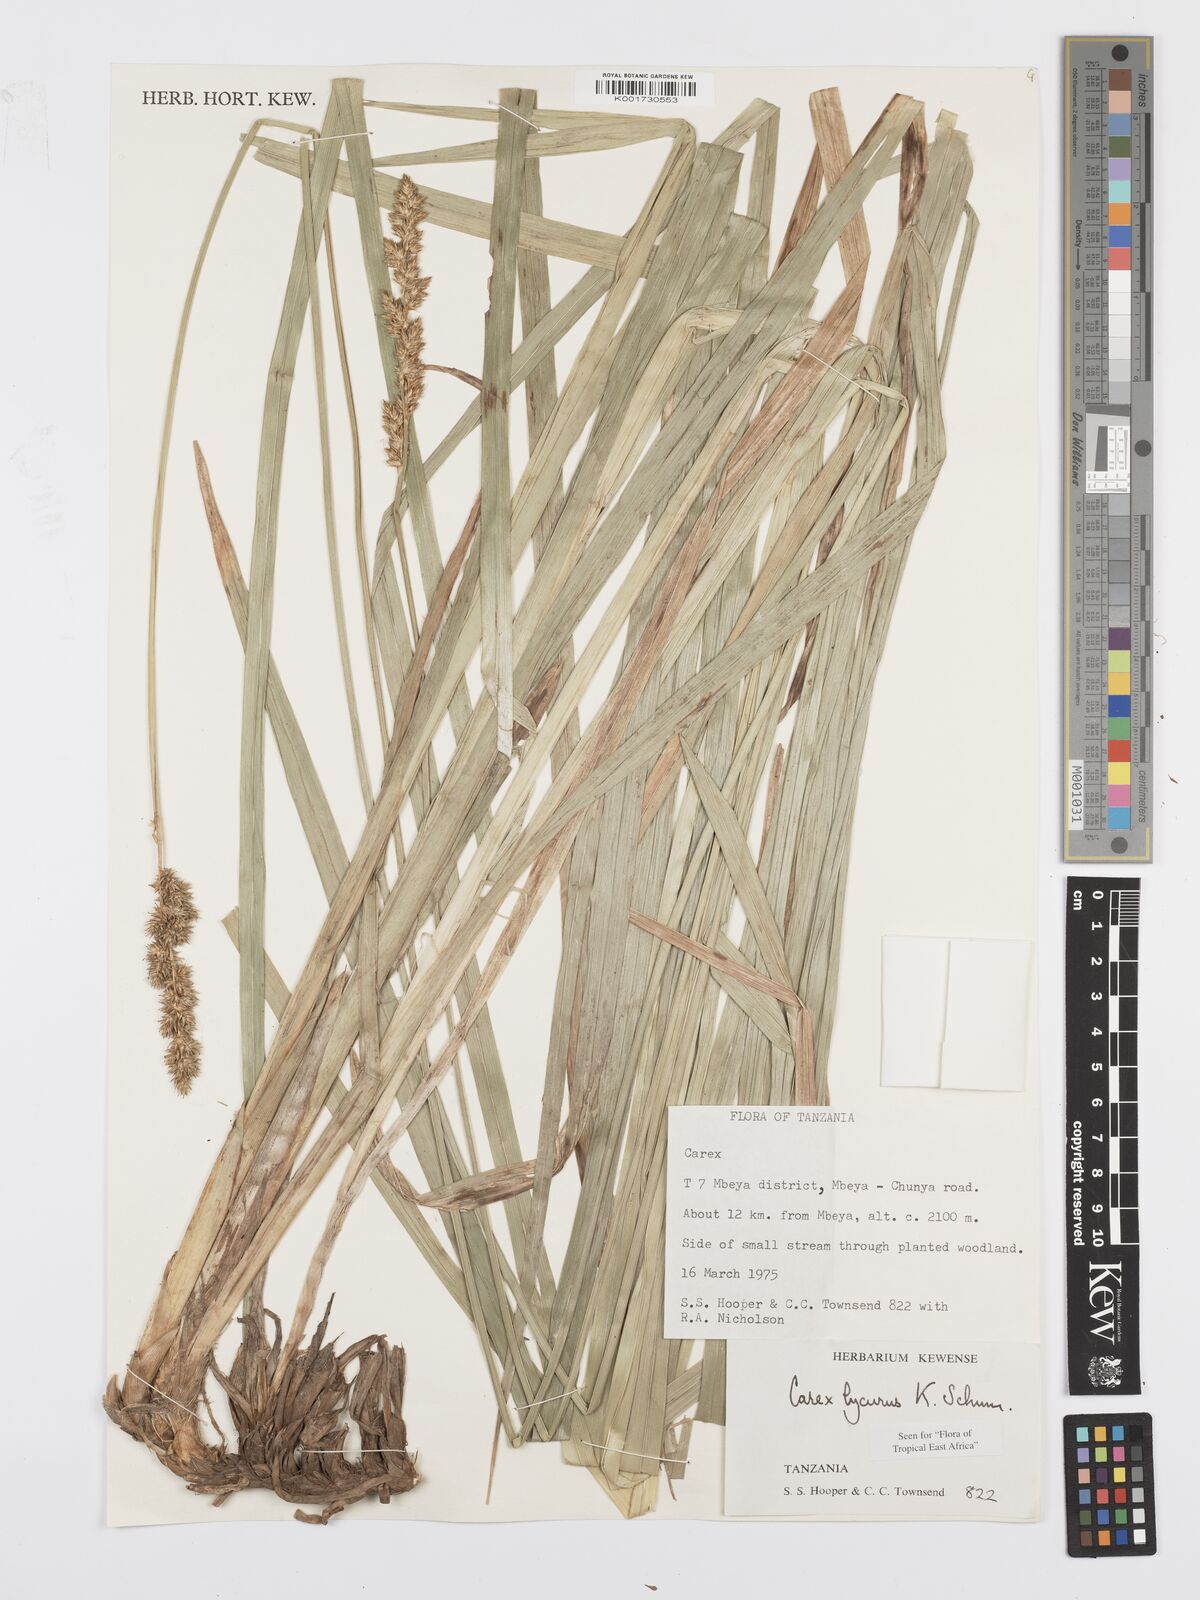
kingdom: Plantae
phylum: Tracheophyta
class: Liliopsida
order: Poales
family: Cyperaceae
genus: Carex
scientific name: Carex lycurus
